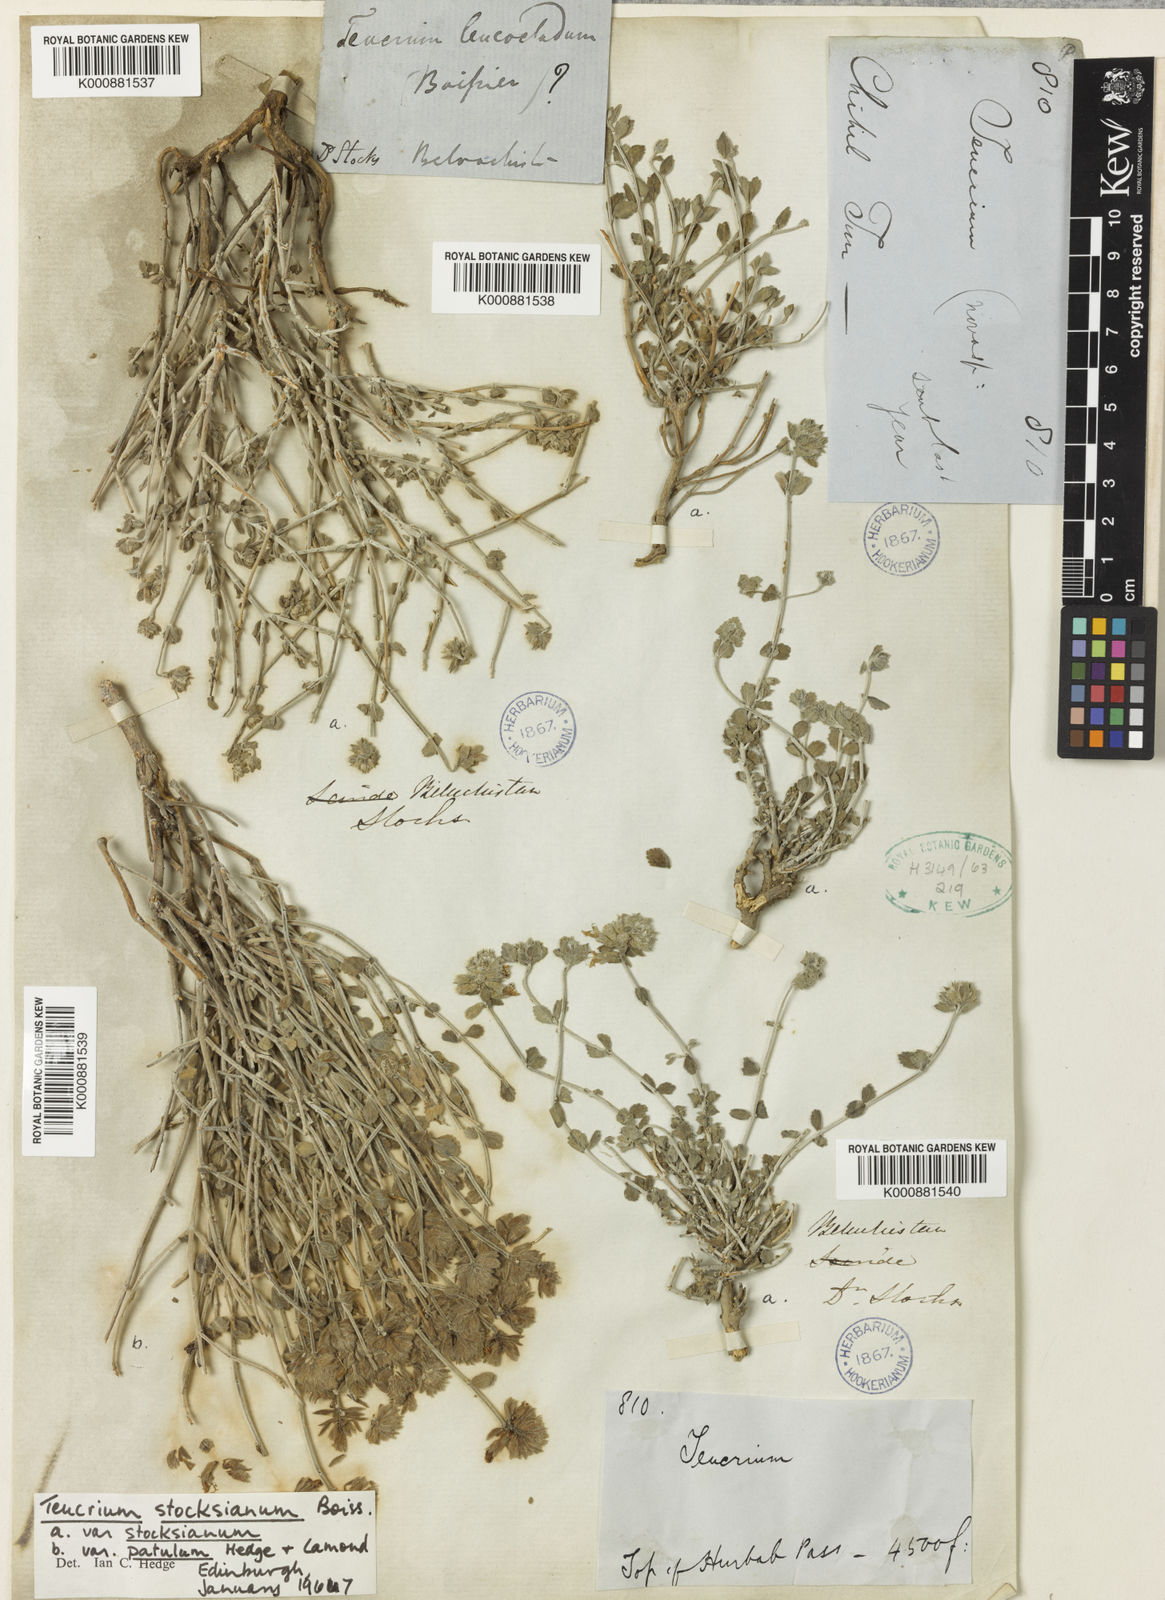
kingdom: Plantae
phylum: Tracheophyta
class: Magnoliopsida
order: Lamiales
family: Lamiaceae
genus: Teucrium
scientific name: Teucrium stocksianum
